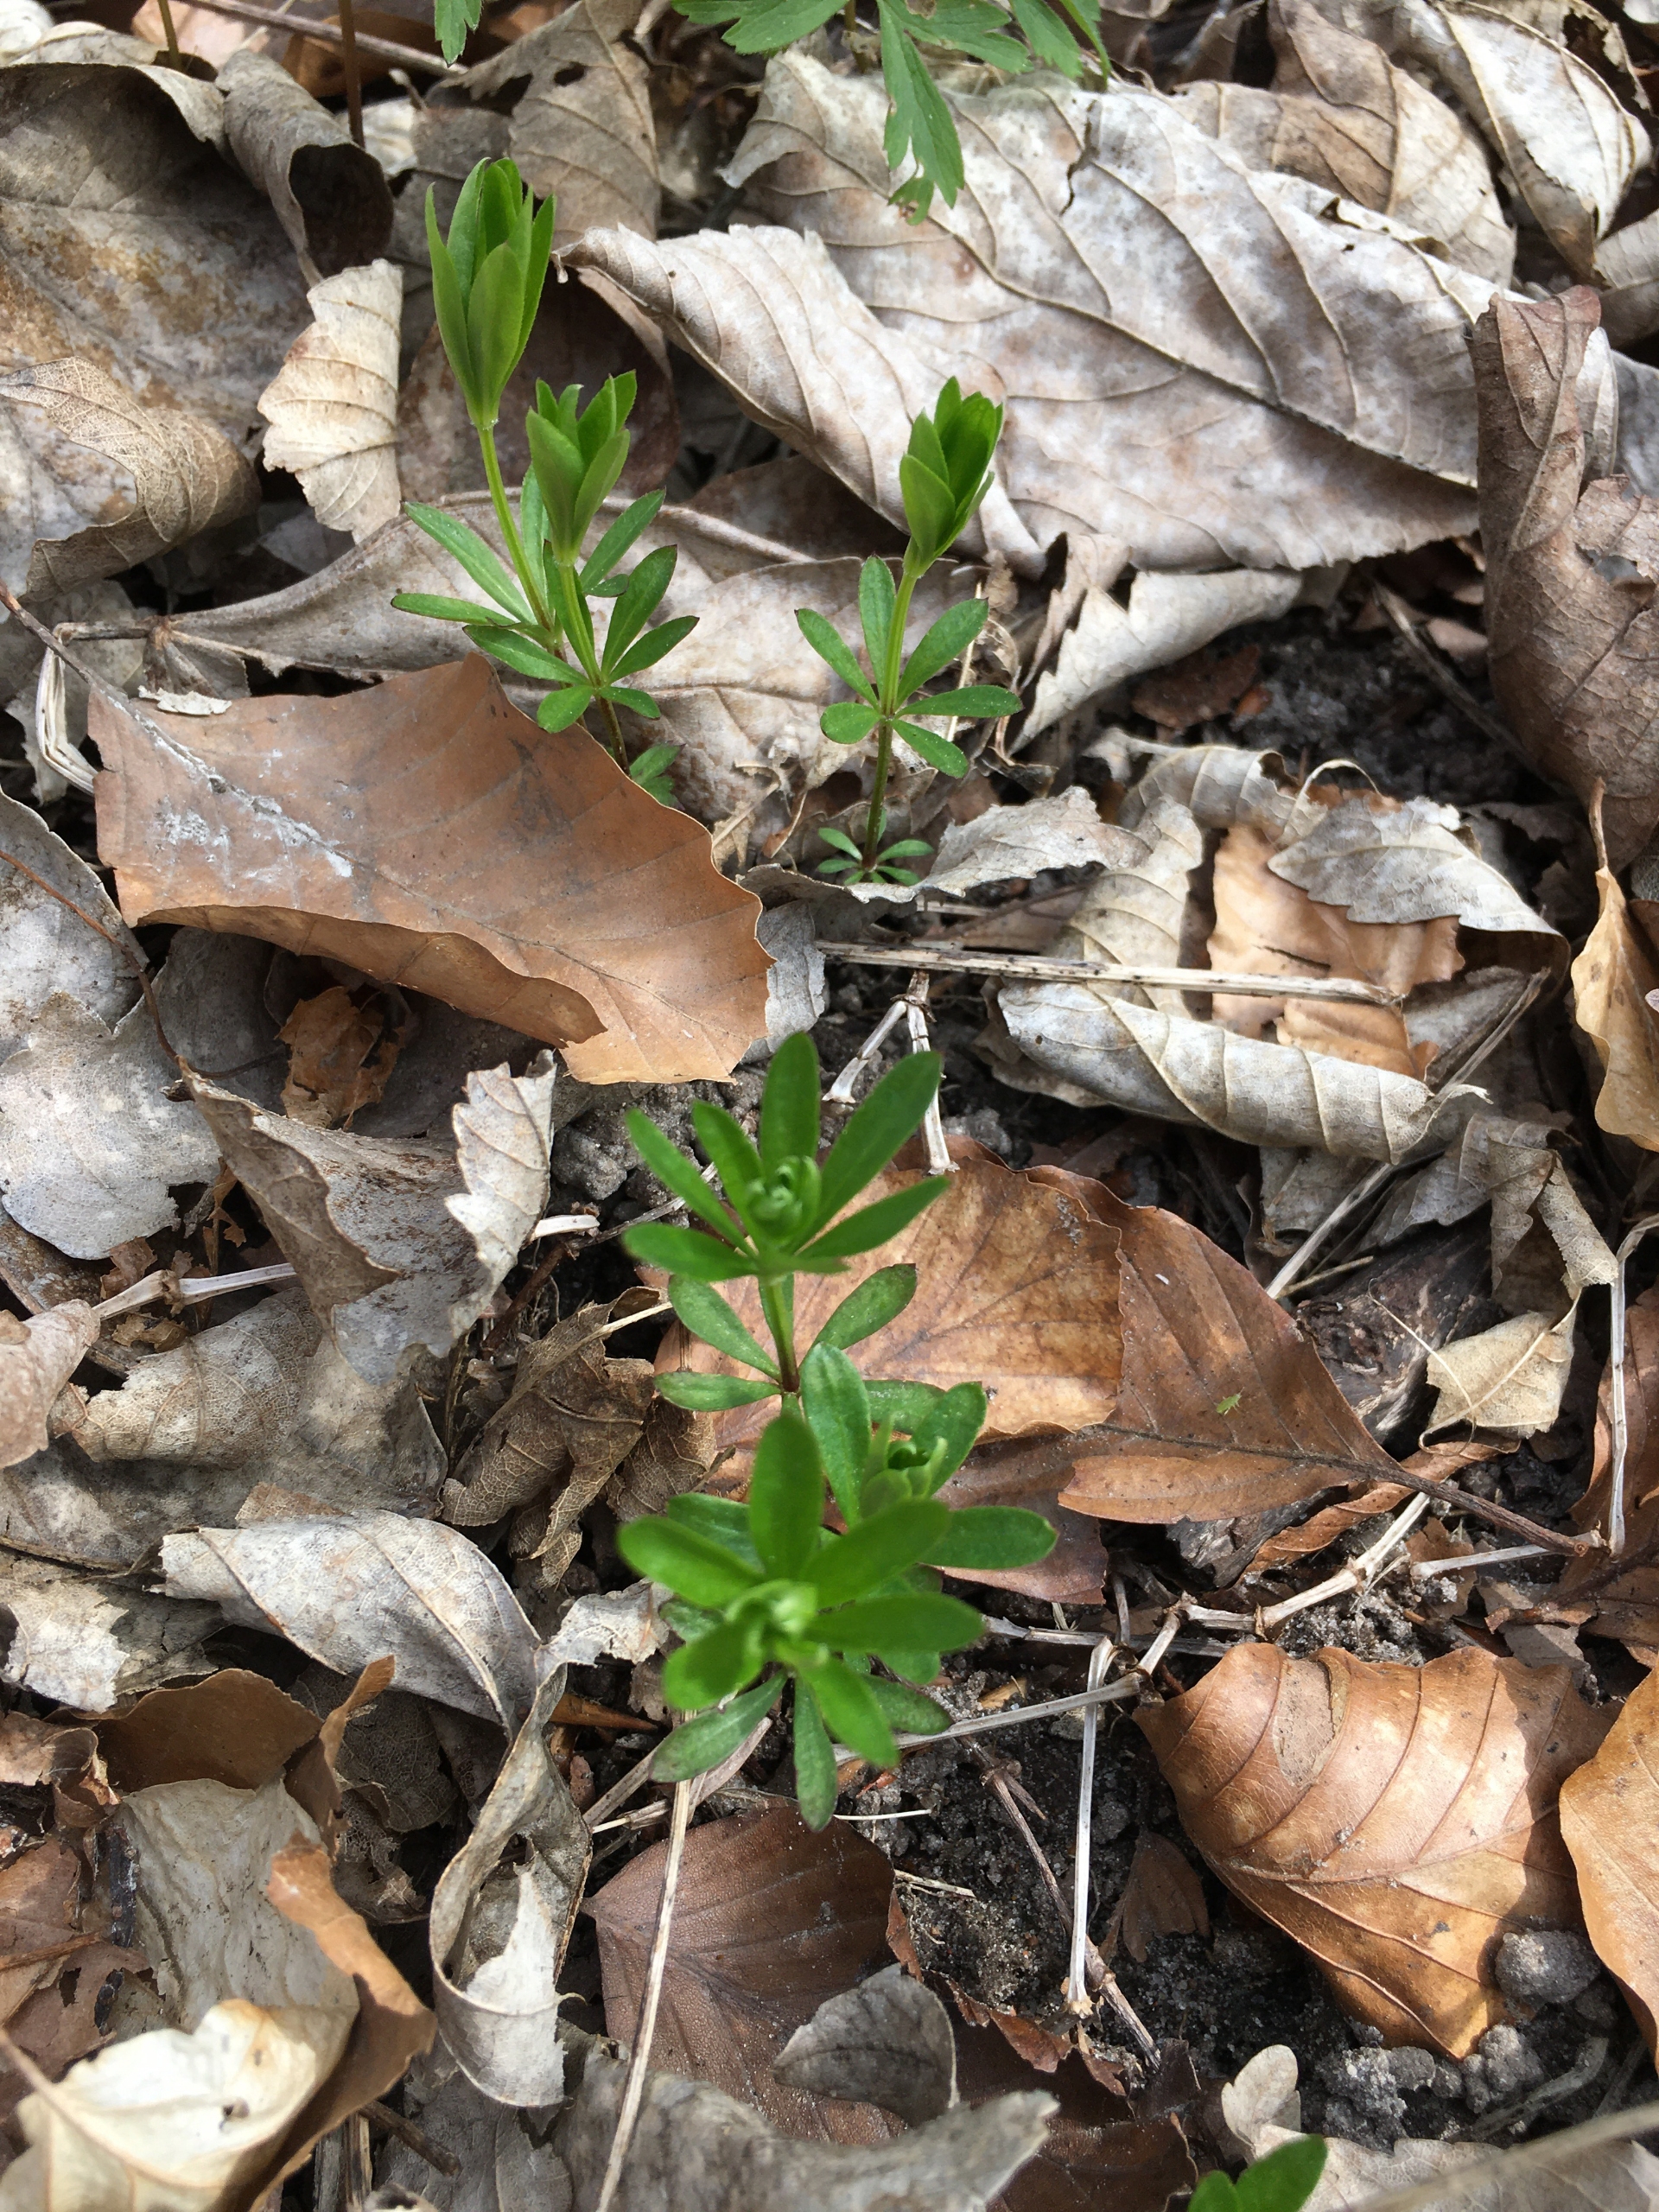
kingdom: Plantae
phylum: Tracheophyta
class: Magnoliopsida
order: Gentianales
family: Rubiaceae
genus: Galium
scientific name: Galium odoratum
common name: Skovmærke
